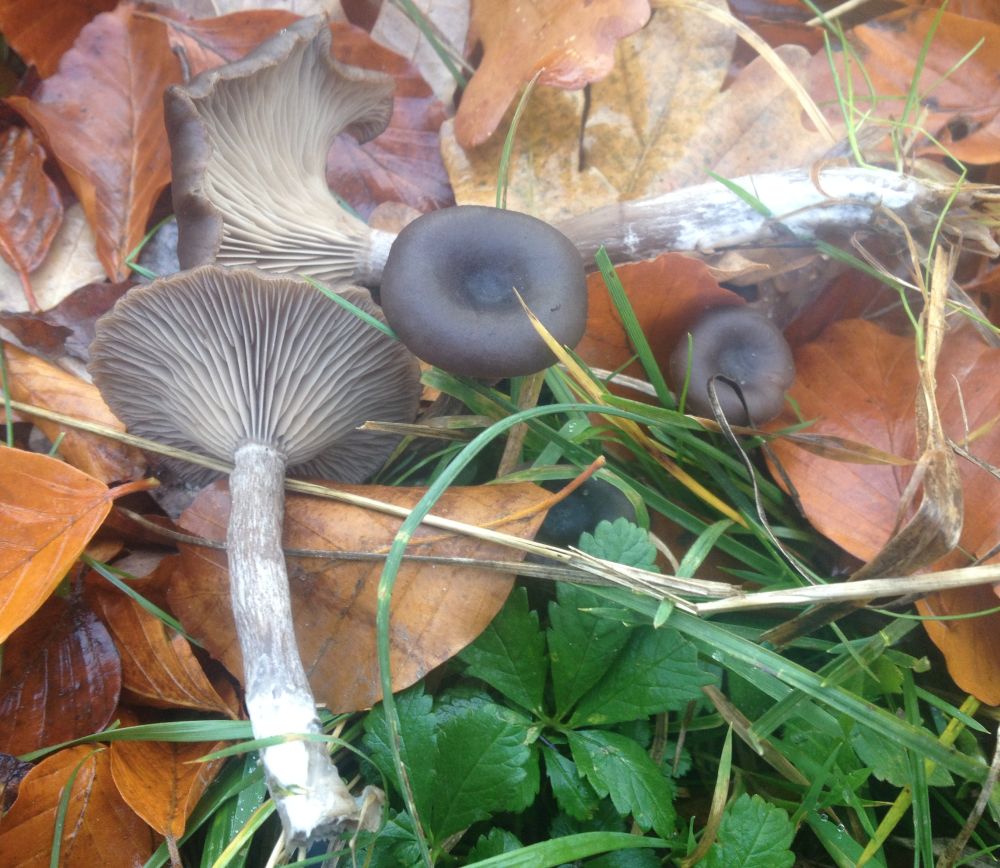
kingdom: Fungi
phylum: Basidiomycota
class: Agaricomycetes
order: Agaricales
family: Pseudoclitocybaceae
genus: Pseudoclitocybe
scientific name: Pseudoclitocybe cyathiformis
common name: almindelig bægertragthat
